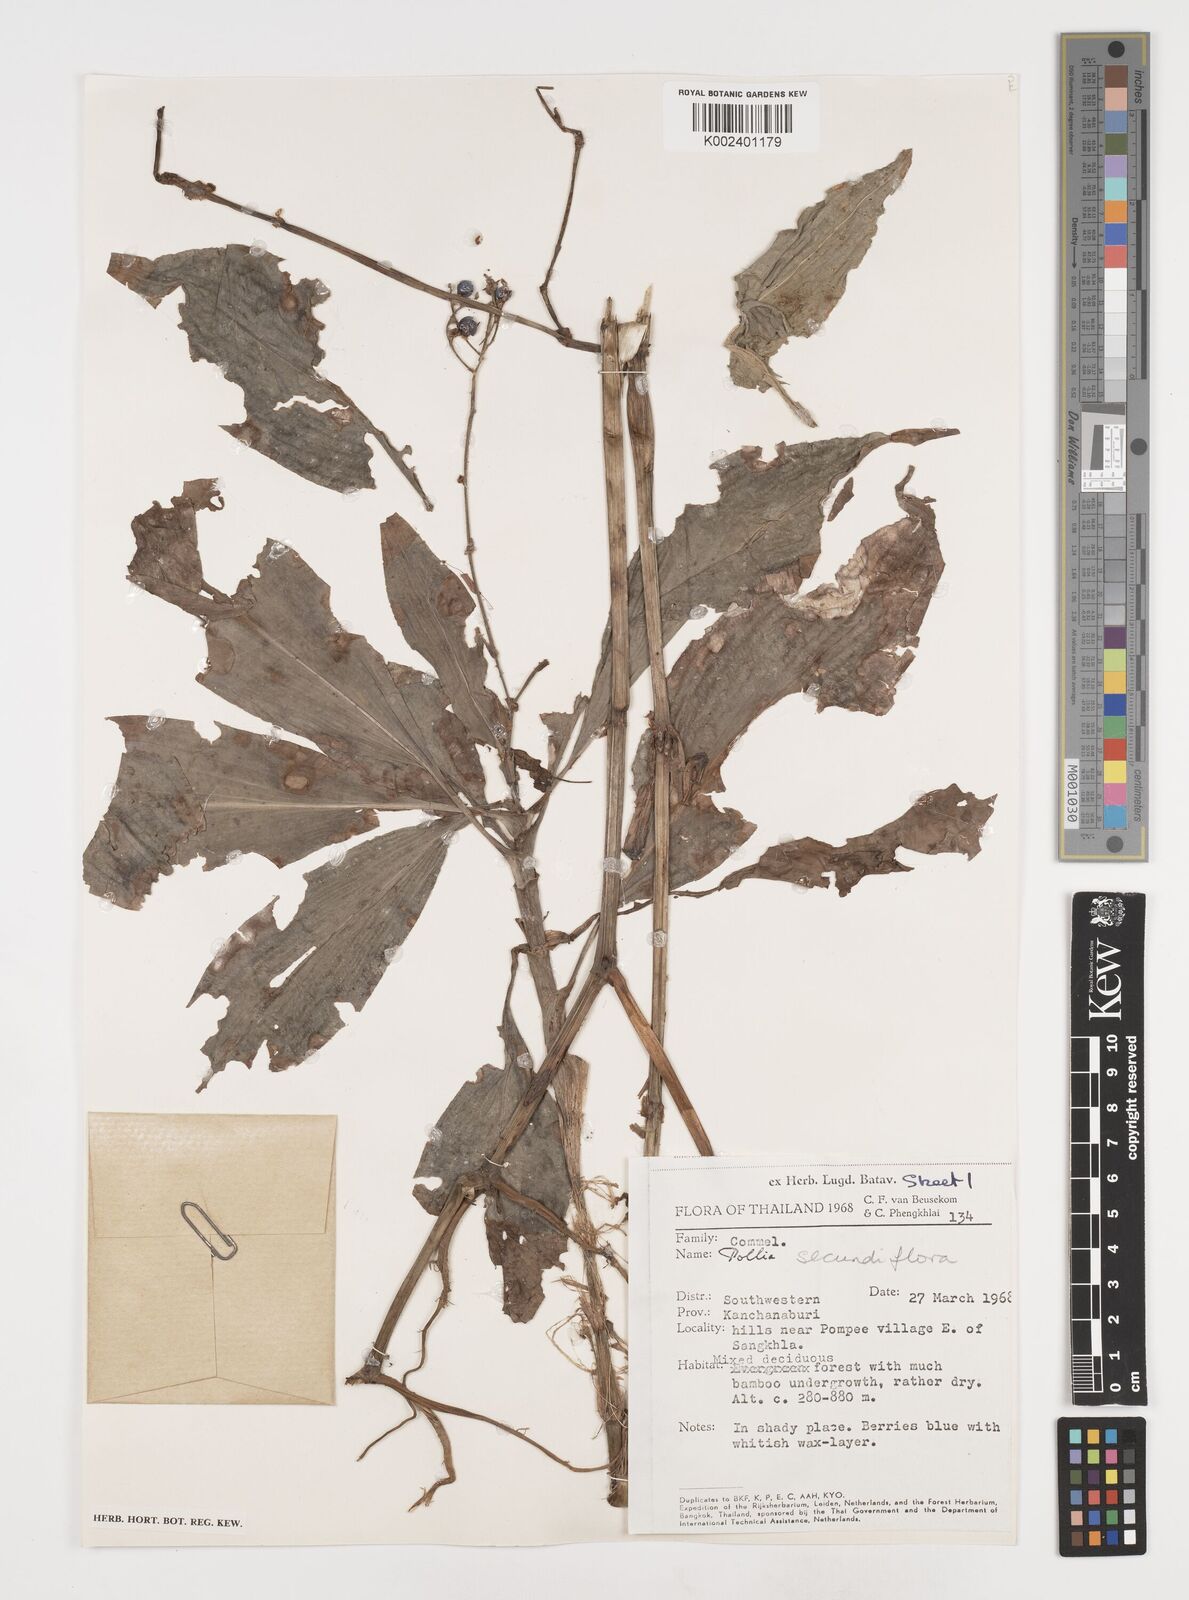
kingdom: Plantae
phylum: Tracheophyta
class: Liliopsida
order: Commelinales
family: Commelinaceae
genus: Pollia
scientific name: Pollia secundiflora
